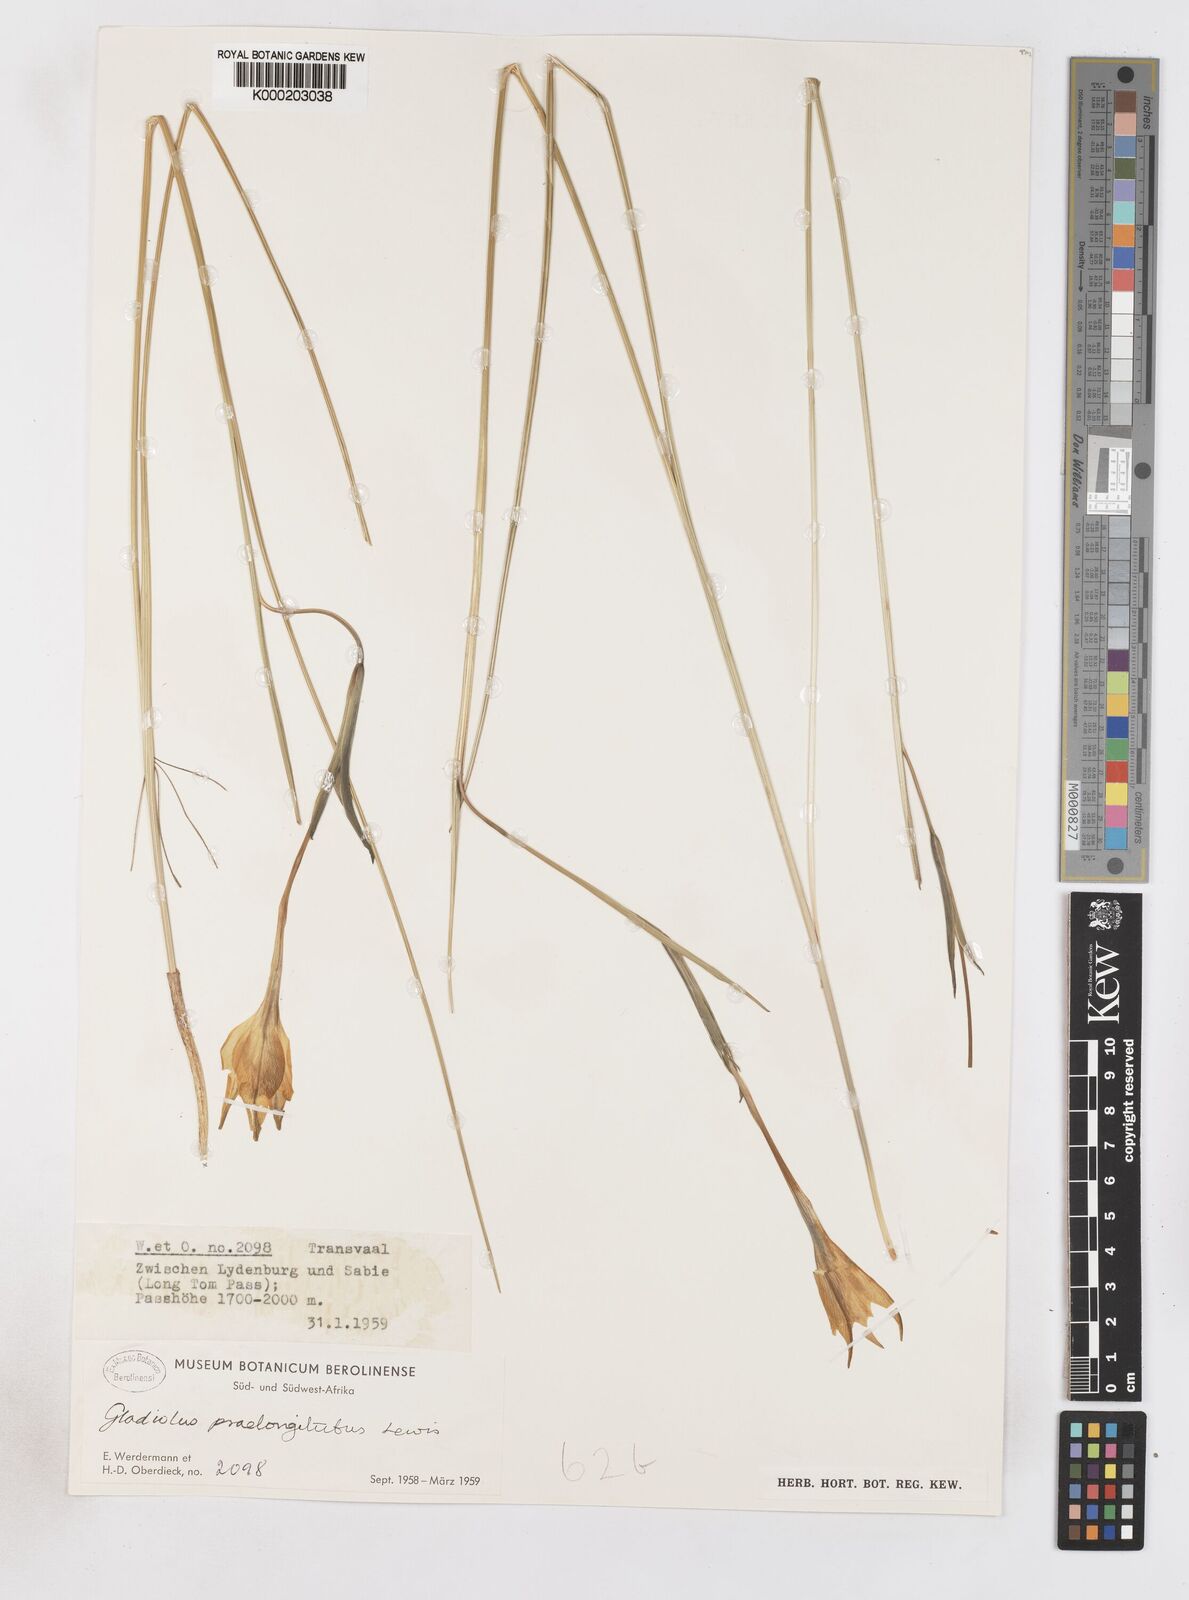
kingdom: Plantae
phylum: Tracheophyta
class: Liliopsida
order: Asparagales
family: Iridaceae
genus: Gladiolus
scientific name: Gladiolus longicollis
